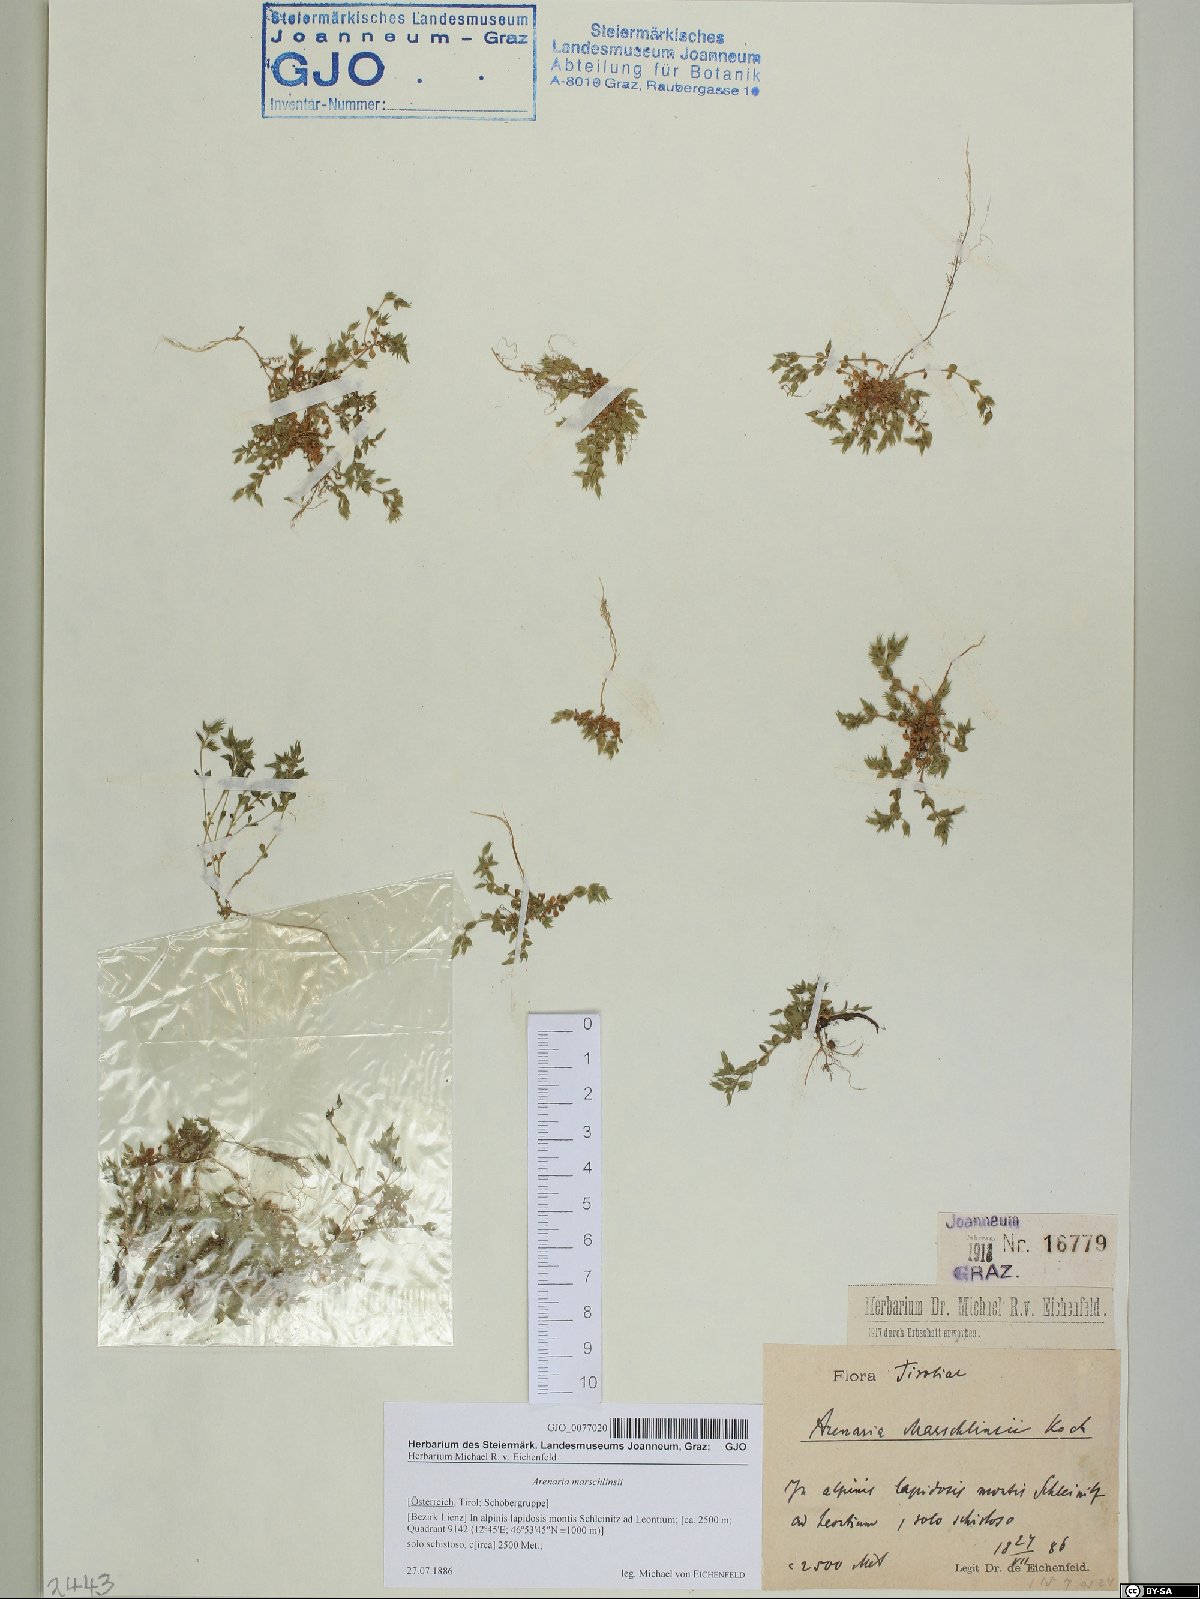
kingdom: Plantae
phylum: Tracheophyta
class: Magnoliopsida
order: Caryophyllales
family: Caryophyllaceae
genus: Arenaria
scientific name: Arenaria marschlinsii
